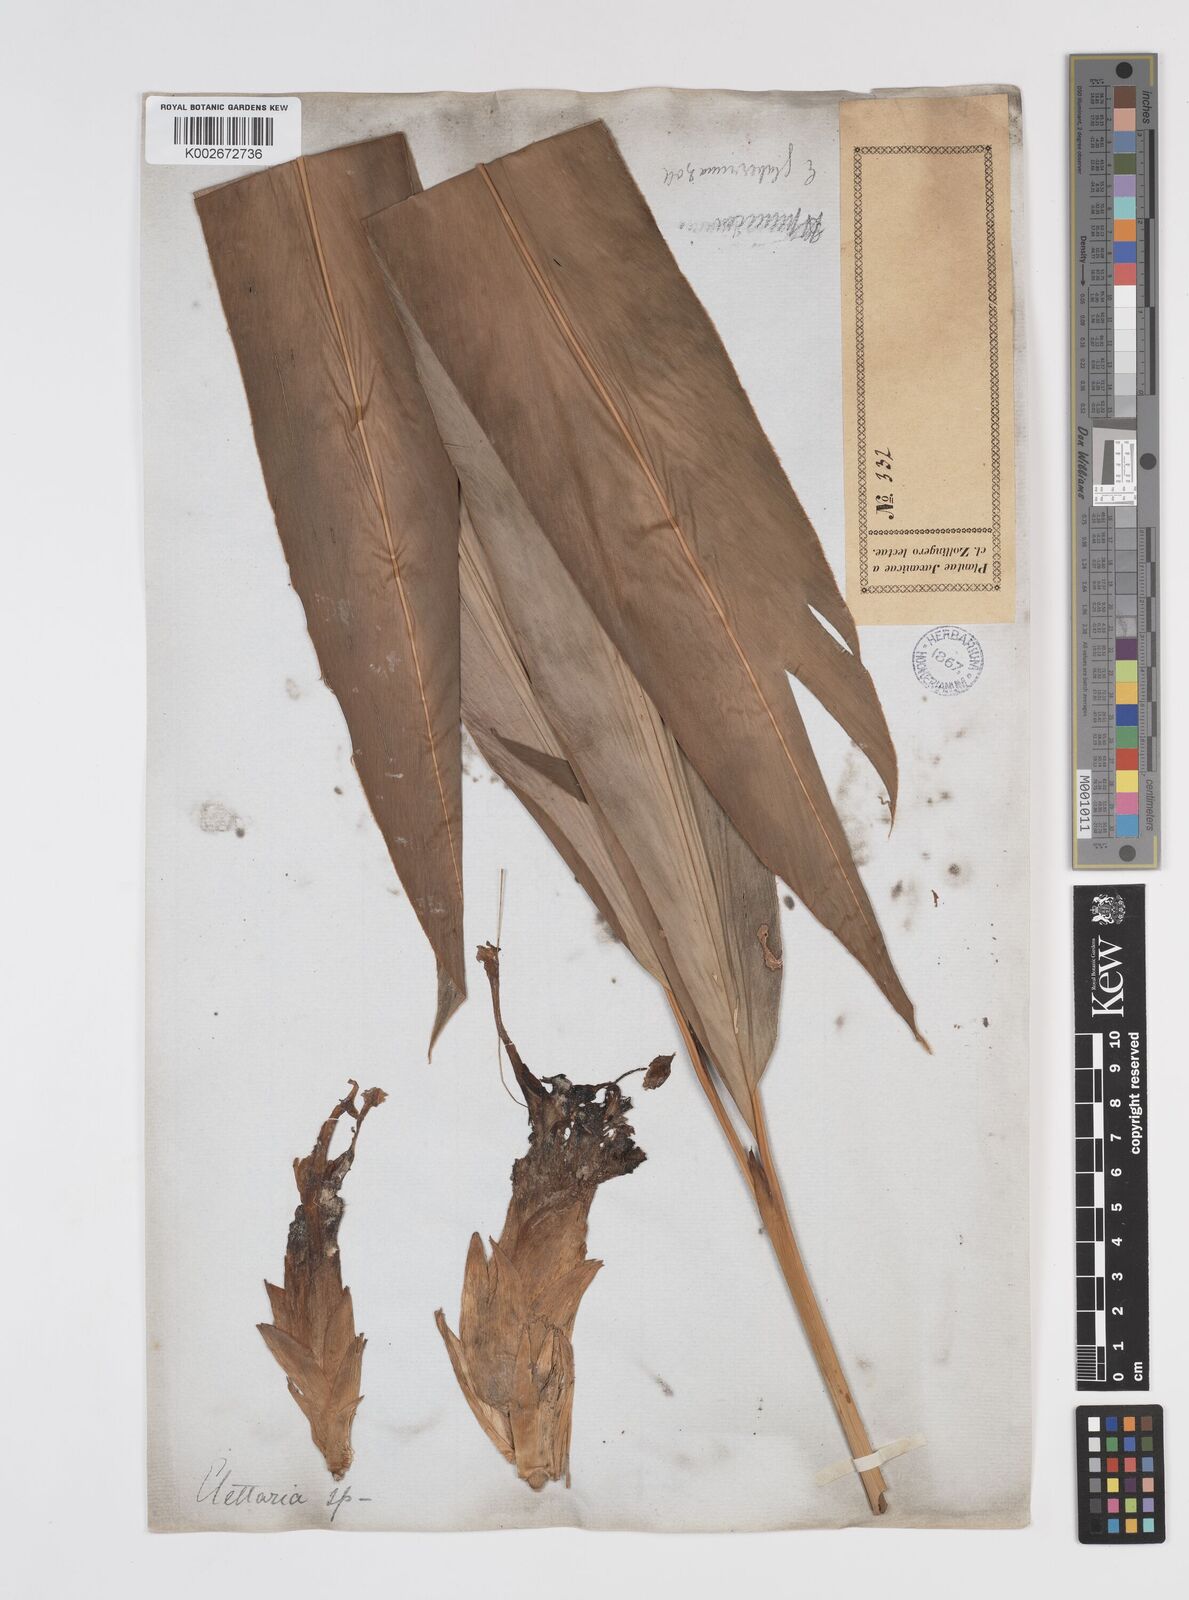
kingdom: Plantae
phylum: Tracheophyta
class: Liliopsida
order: Zingiberales
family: Zingiberaceae
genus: Etlingera
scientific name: Etlingera coccinea
